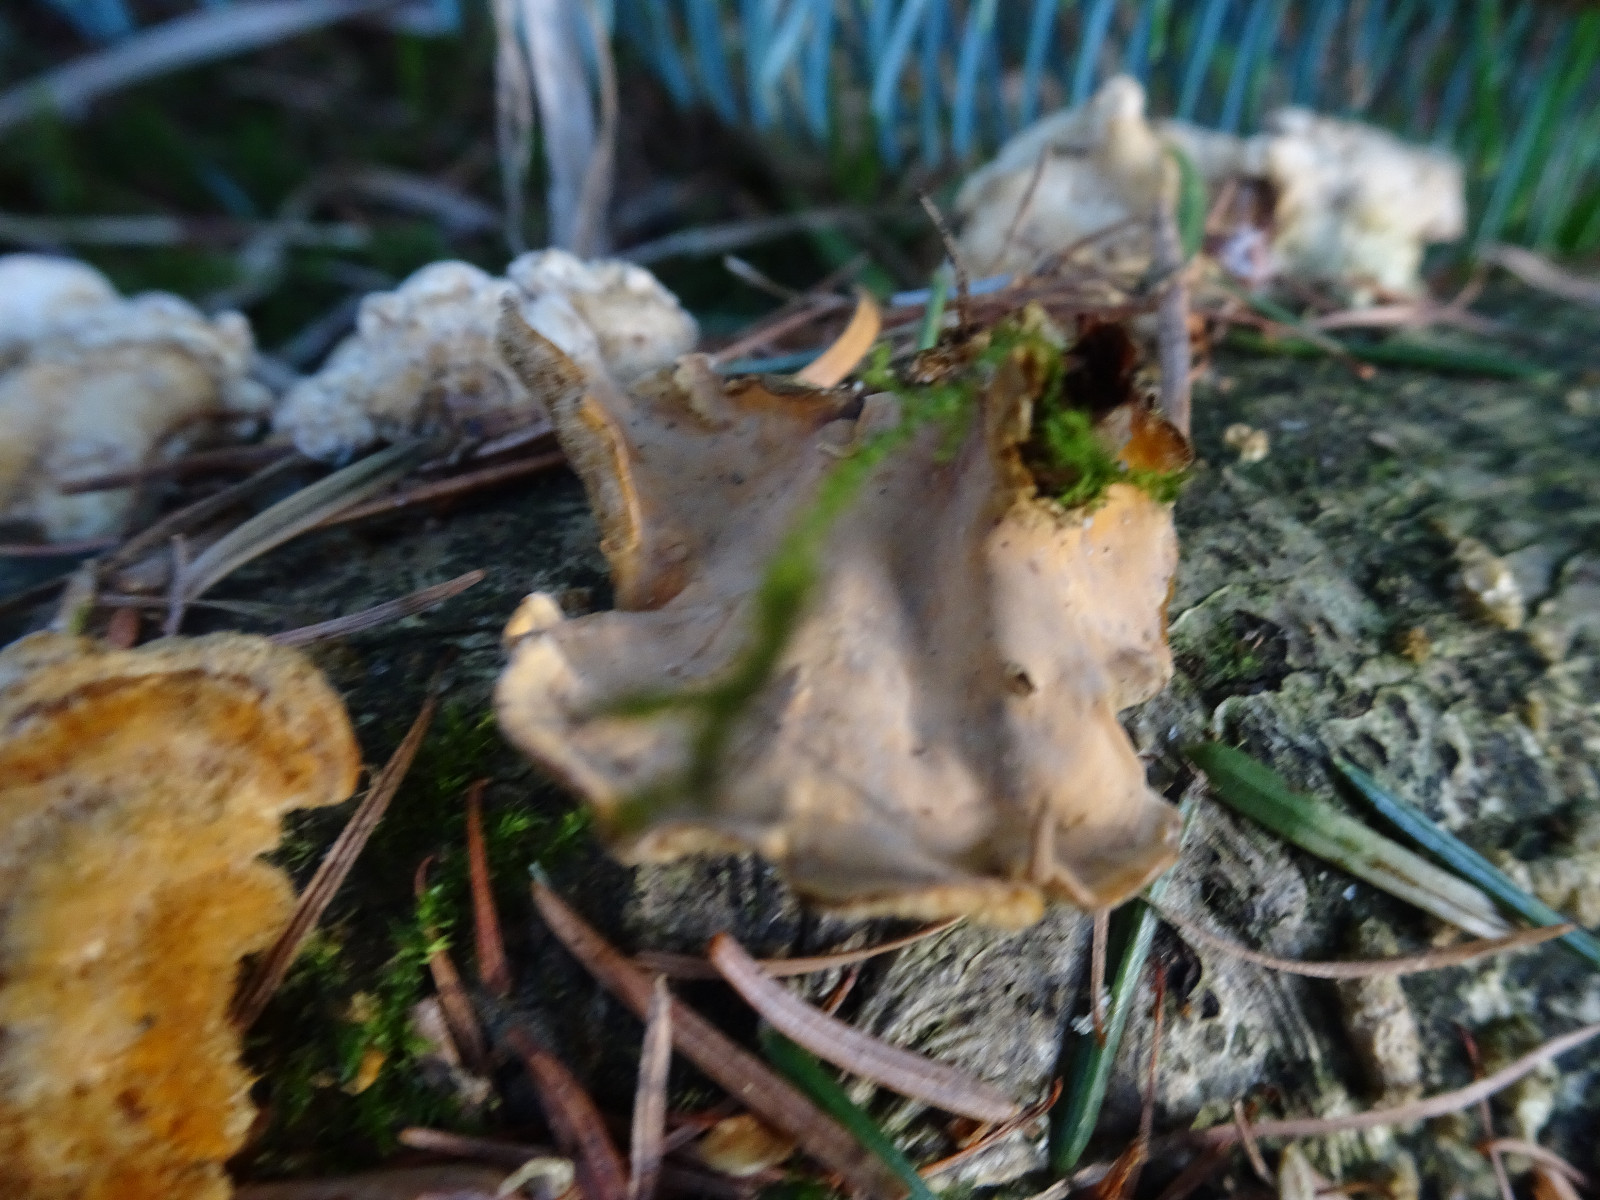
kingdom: Fungi
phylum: Basidiomycota
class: Agaricomycetes
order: Russulales
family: Stereaceae
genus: Stereum
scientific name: Stereum hirsutum
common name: håret lædersvamp
